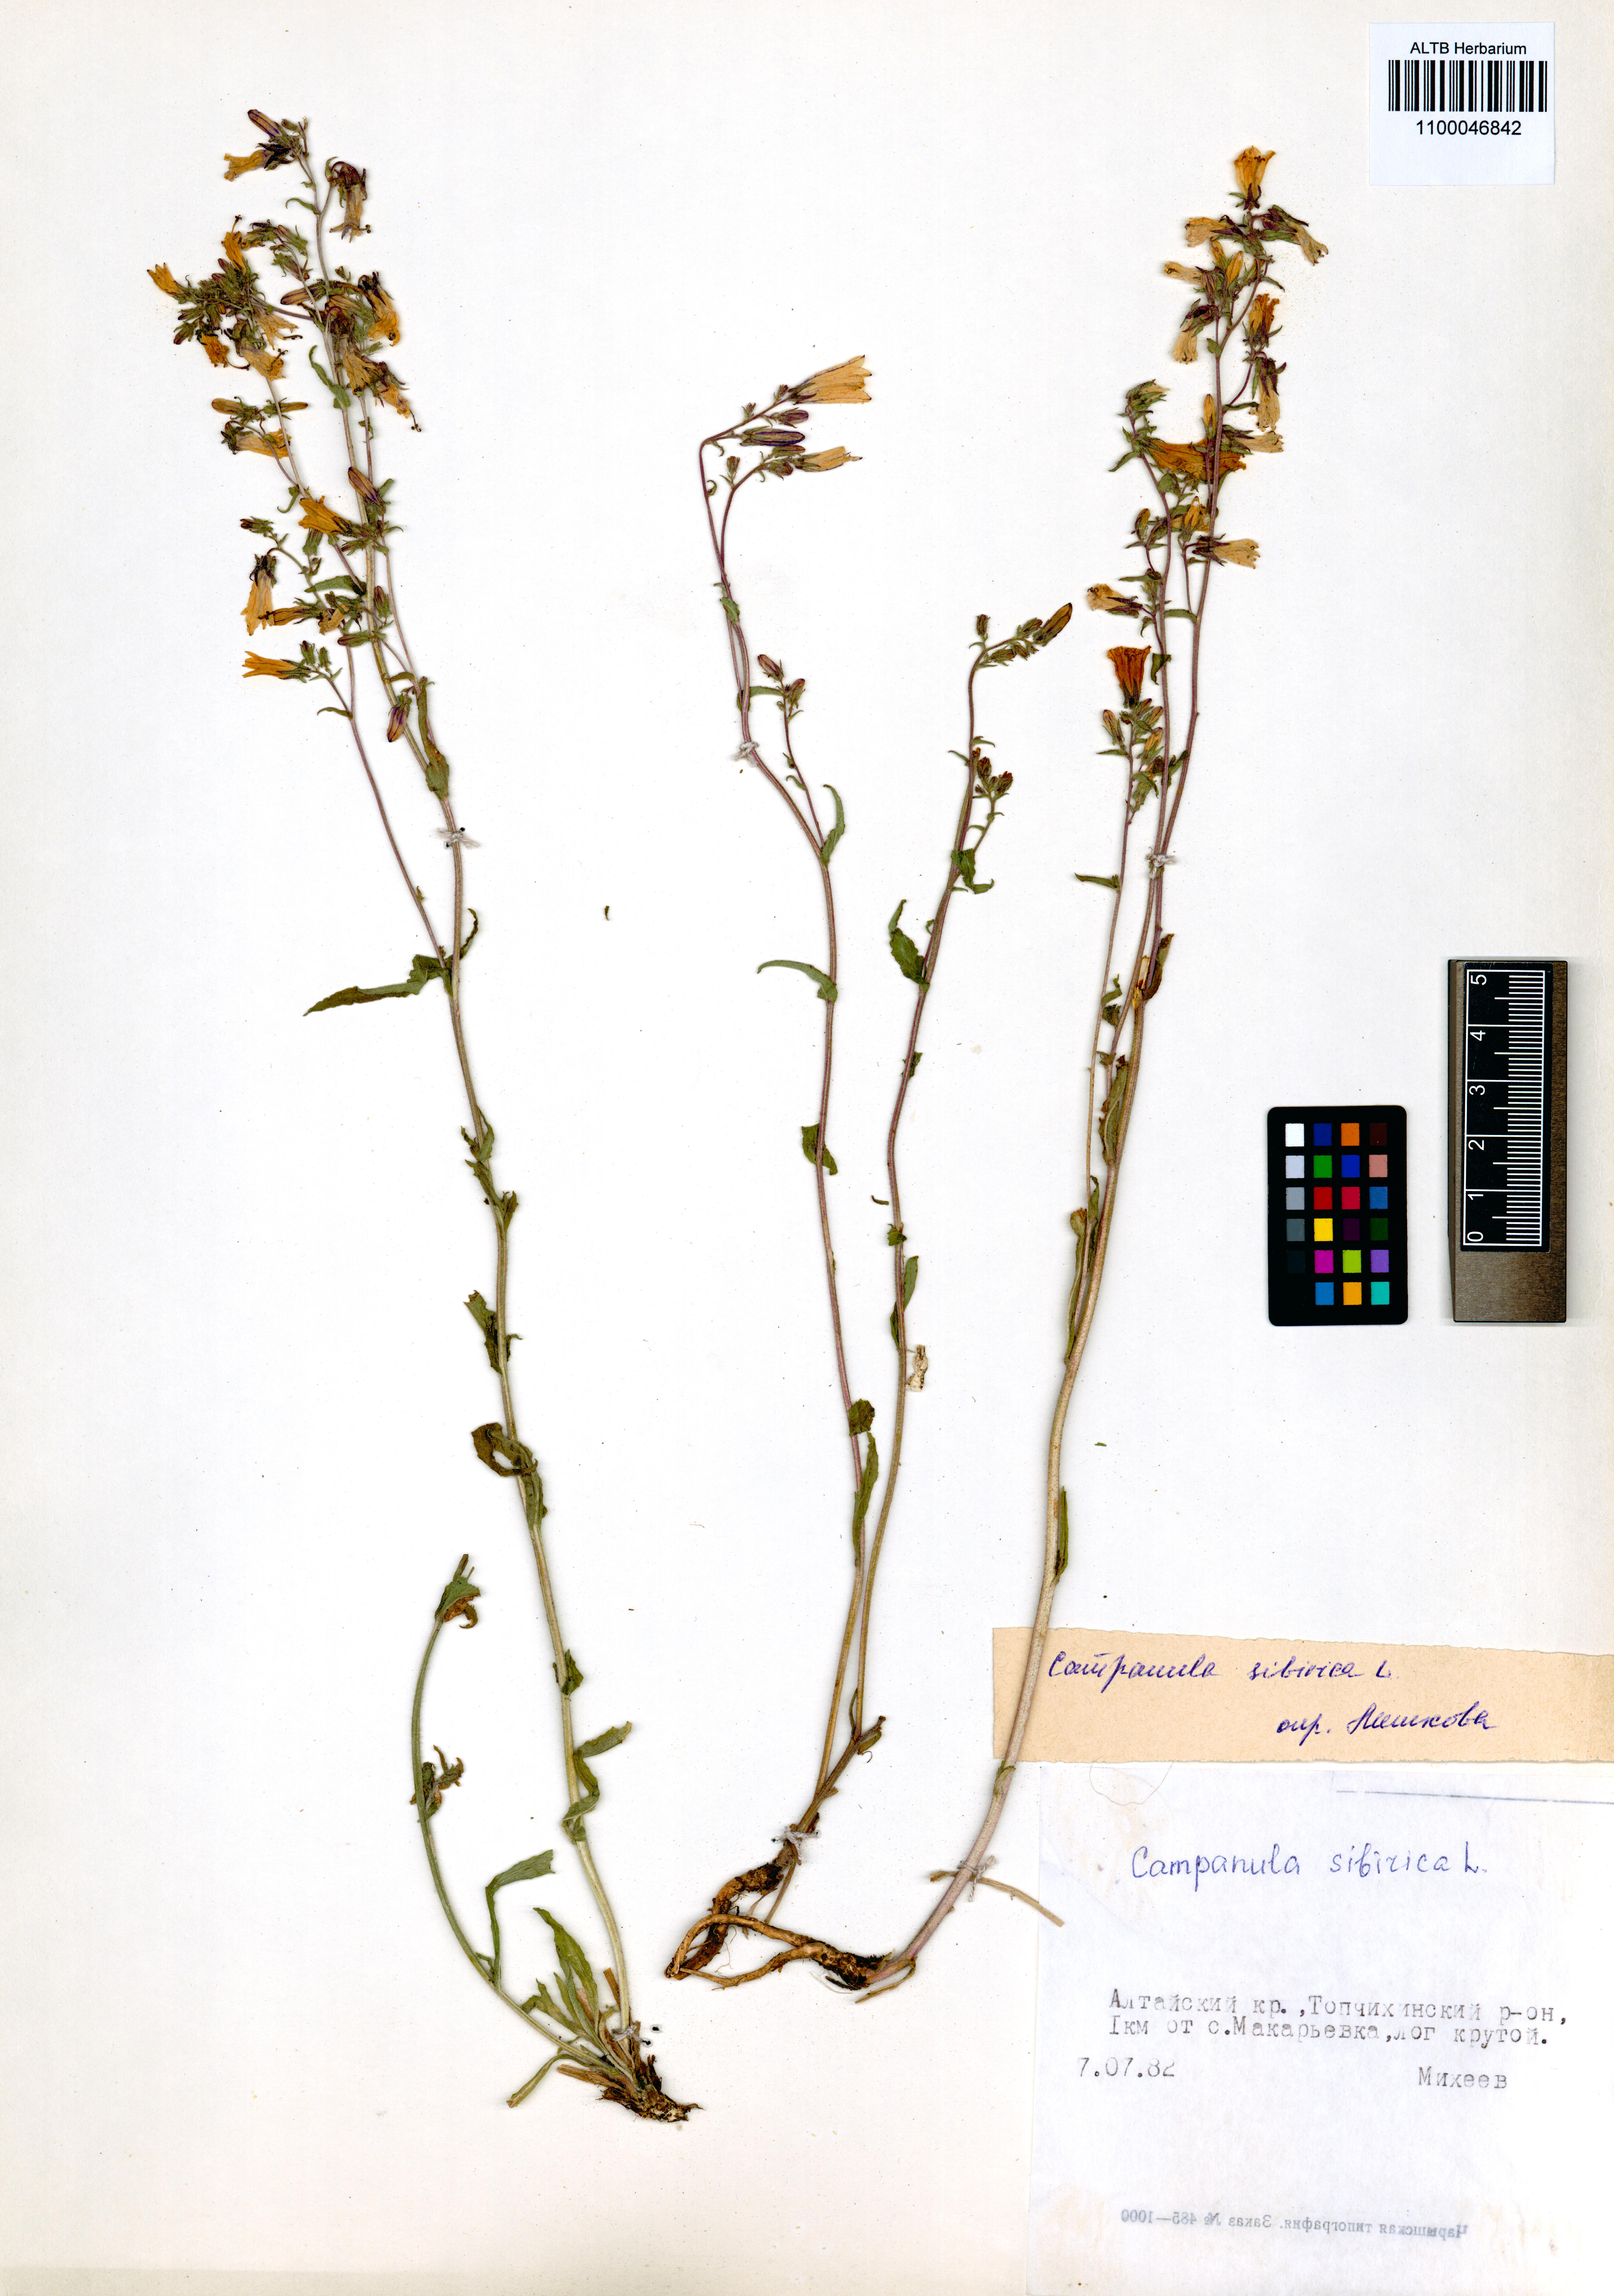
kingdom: Plantae
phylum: Tracheophyta
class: Magnoliopsida
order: Asterales
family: Campanulaceae
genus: Campanula
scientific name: Campanula sibirica
